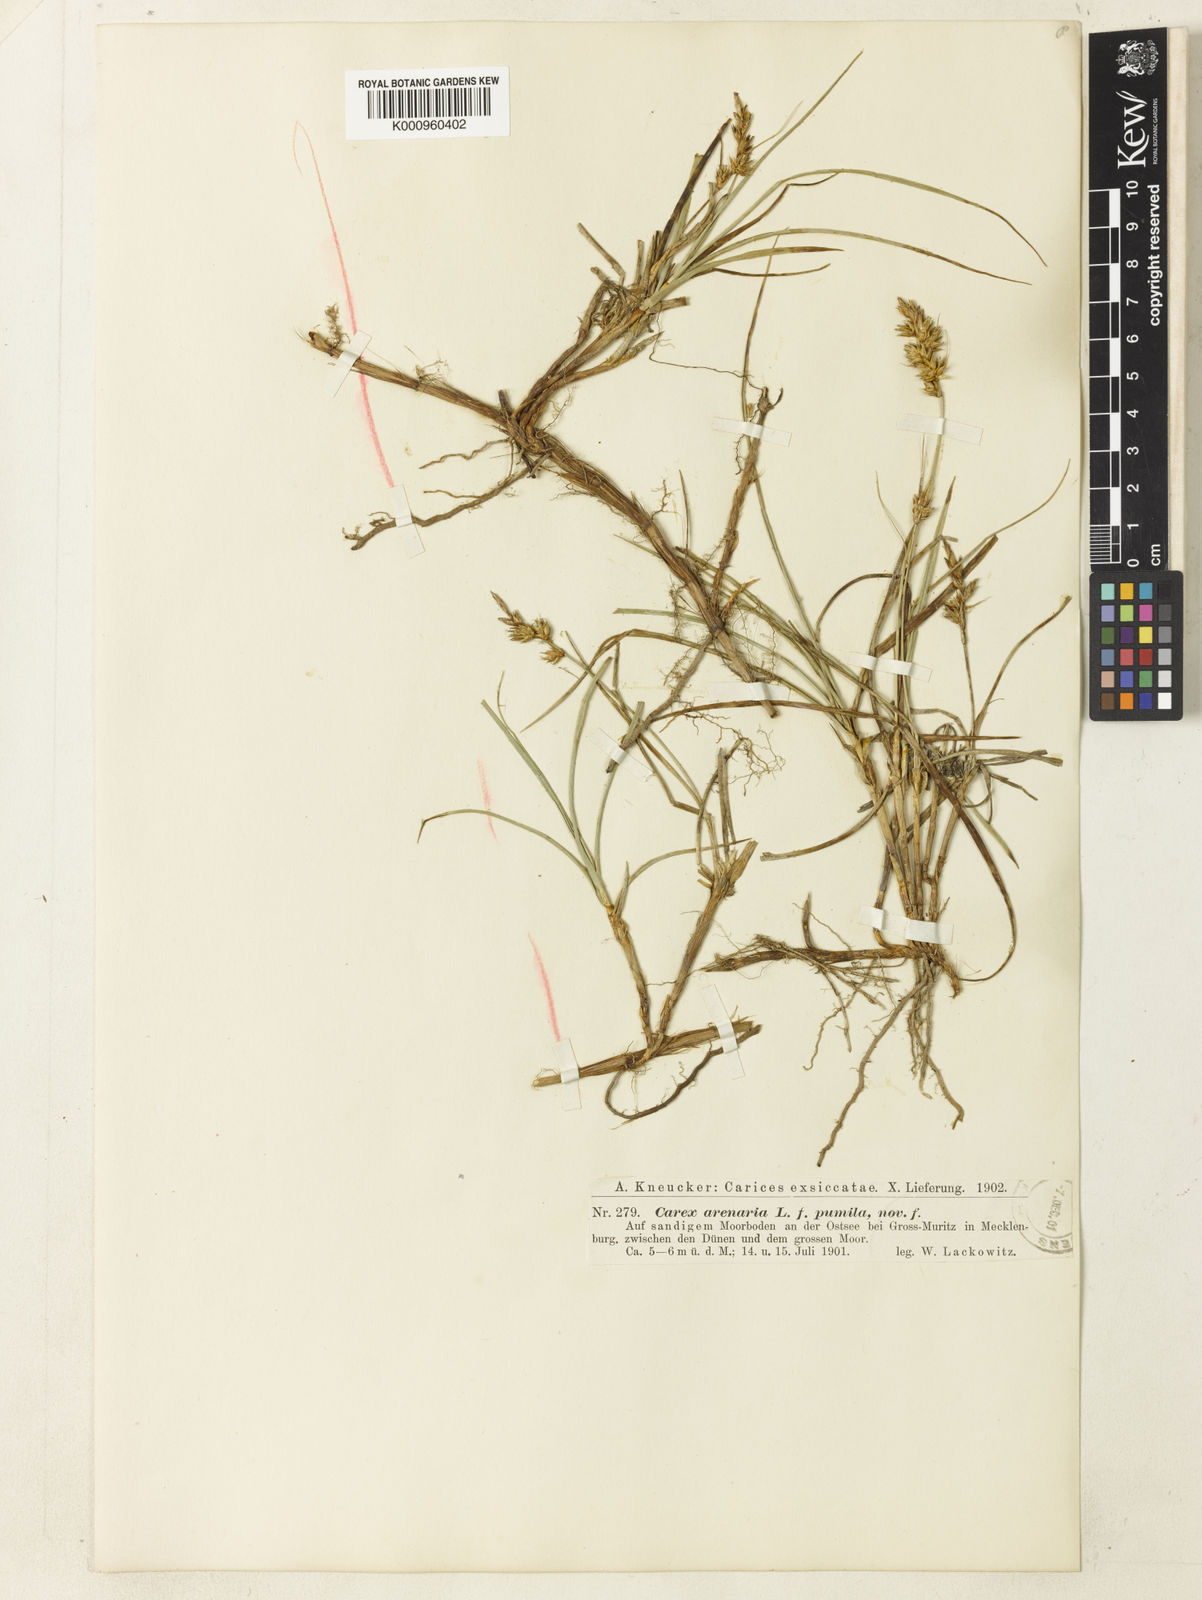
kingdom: Plantae
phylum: Tracheophyta
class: Liliopsida
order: Poales
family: Cyperaceae
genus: Carex
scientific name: Carex arenaria
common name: Sand sedge
